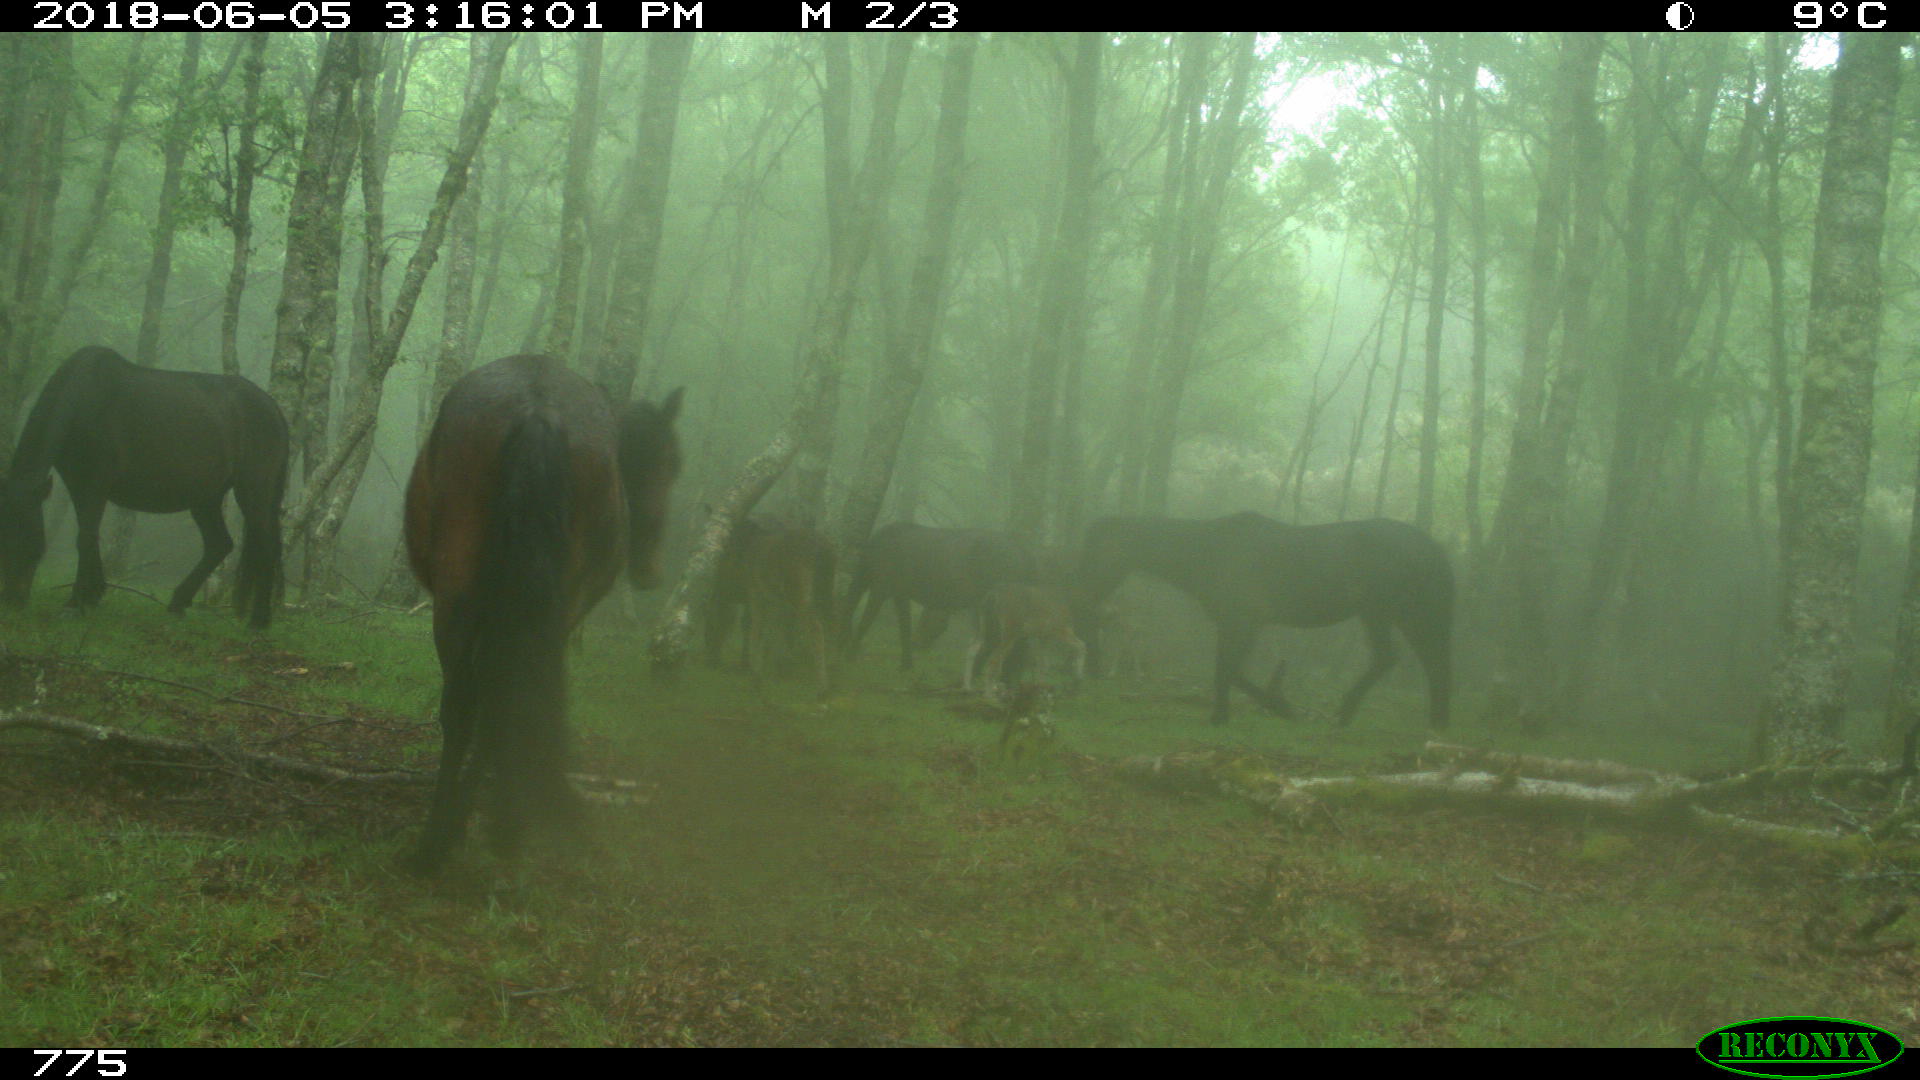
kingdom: Animalia
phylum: Chordata
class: Mammalia
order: Perissodactyla
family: Equidae
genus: Equus
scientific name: Equus caballus
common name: Horse
